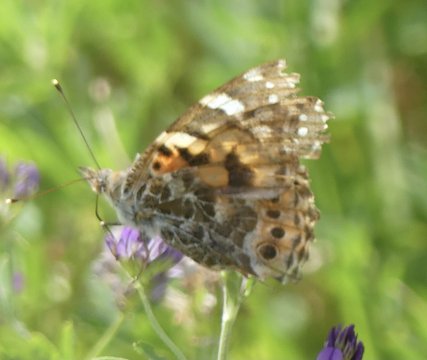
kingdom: Animalia
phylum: Arthropoda
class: Insecta
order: Lepidoptera
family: Nymphalidae
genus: Vanessa
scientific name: Vanessa cardui
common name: Painted Lady
